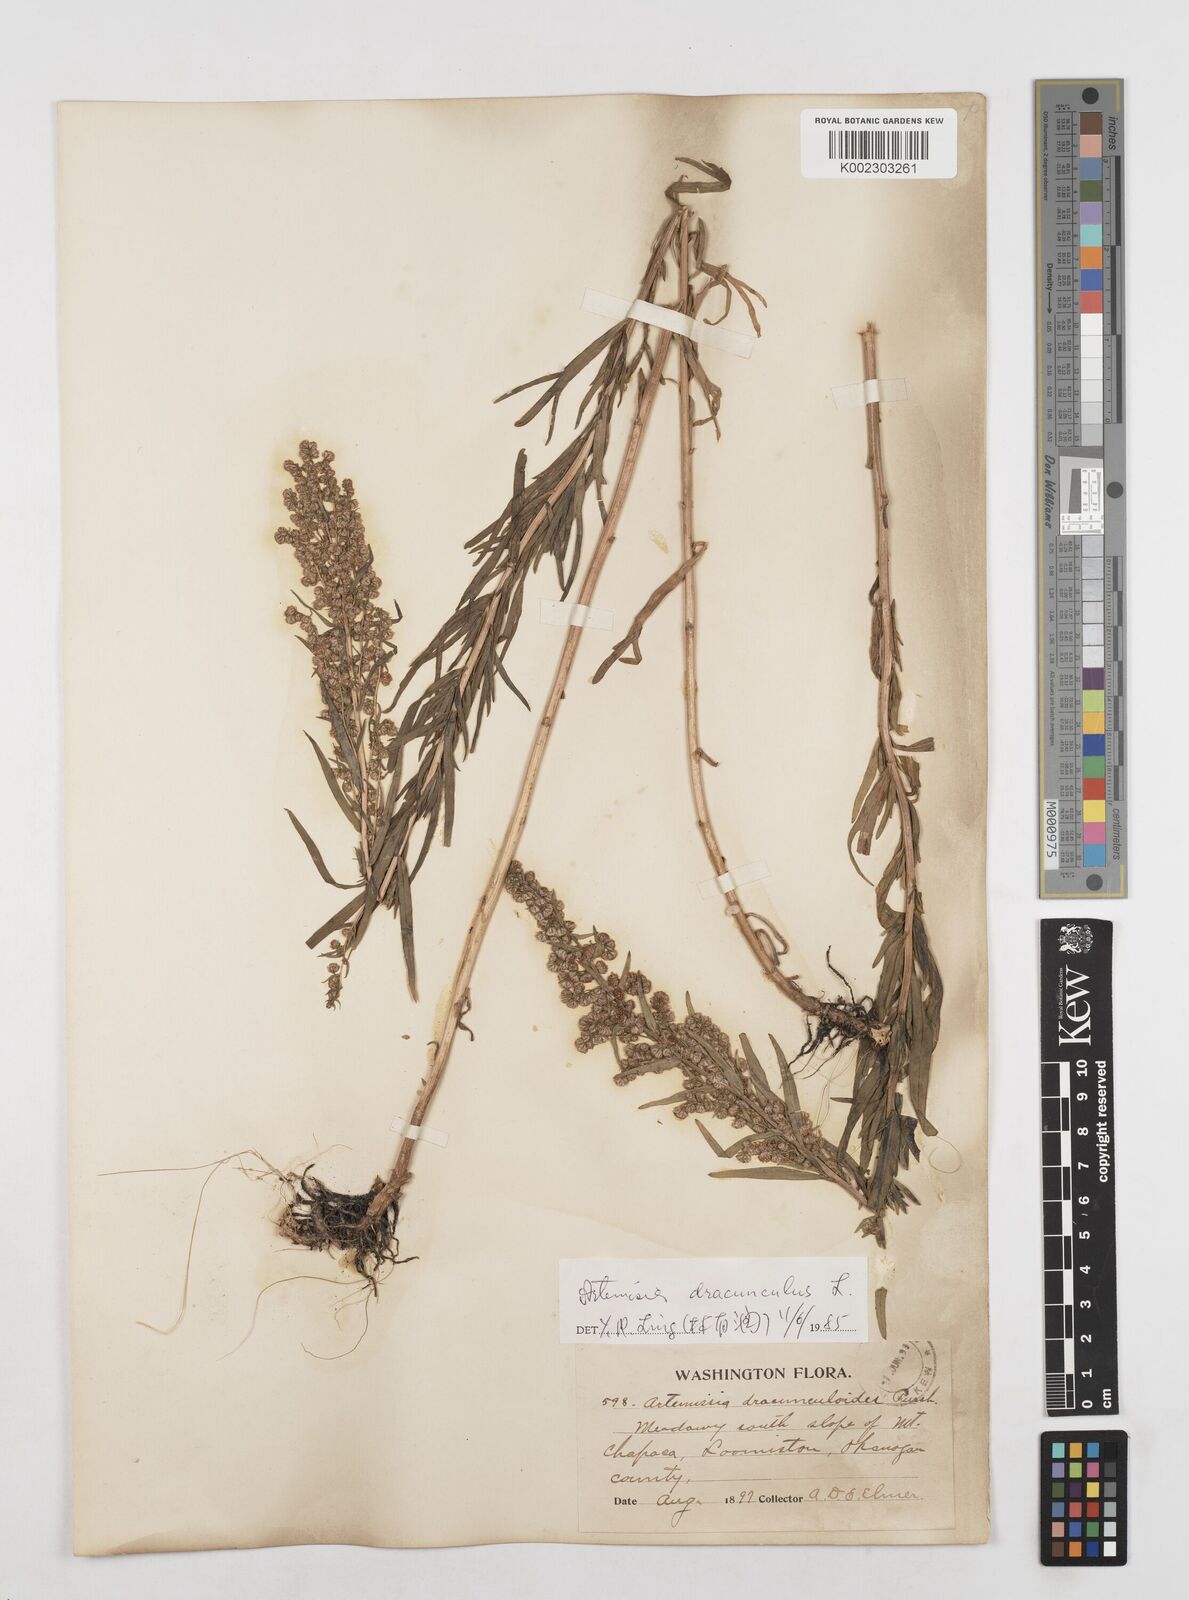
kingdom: Plantae
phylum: Tracheophyta
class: Magnoliopsida
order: Asterales
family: Asteraceae
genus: Artemisia
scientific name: Artemisia dracunculus
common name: Tarragon
